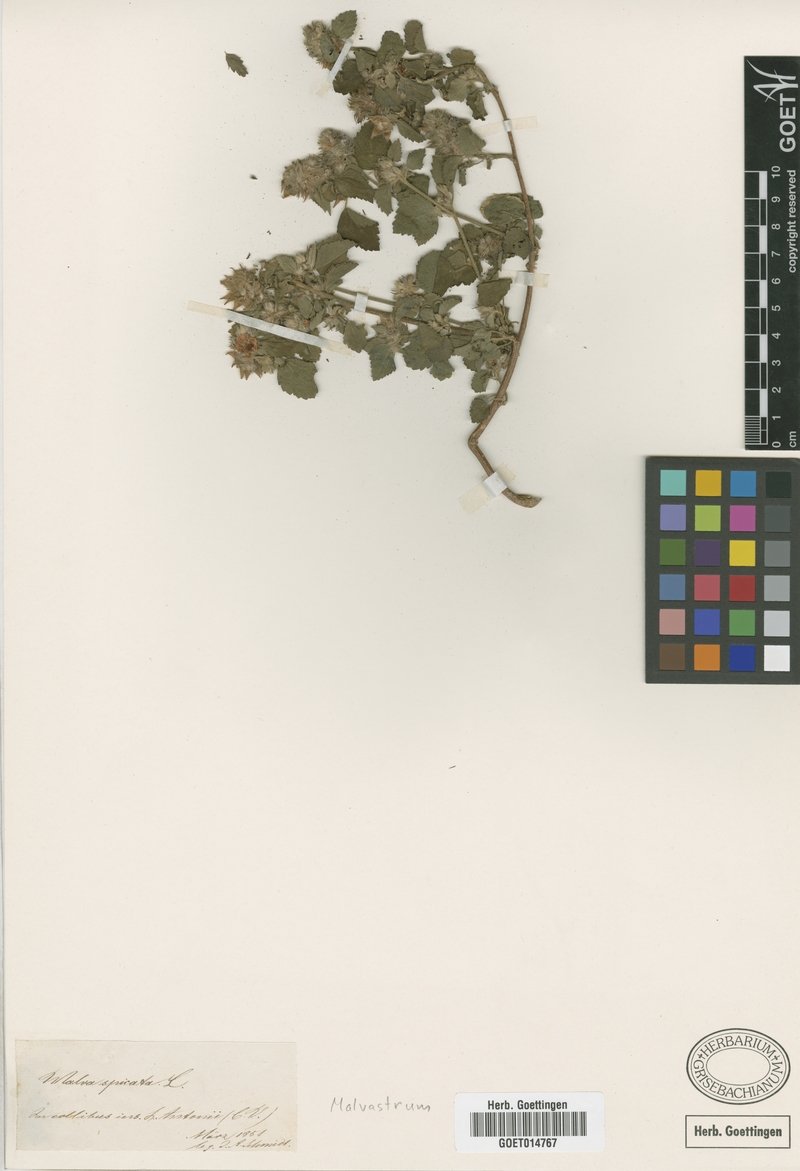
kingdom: Plantae
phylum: Tracheophyta
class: Magnoliopsida
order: Malvales
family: Malvaceae
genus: Malvastrum
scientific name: Malvastrum
